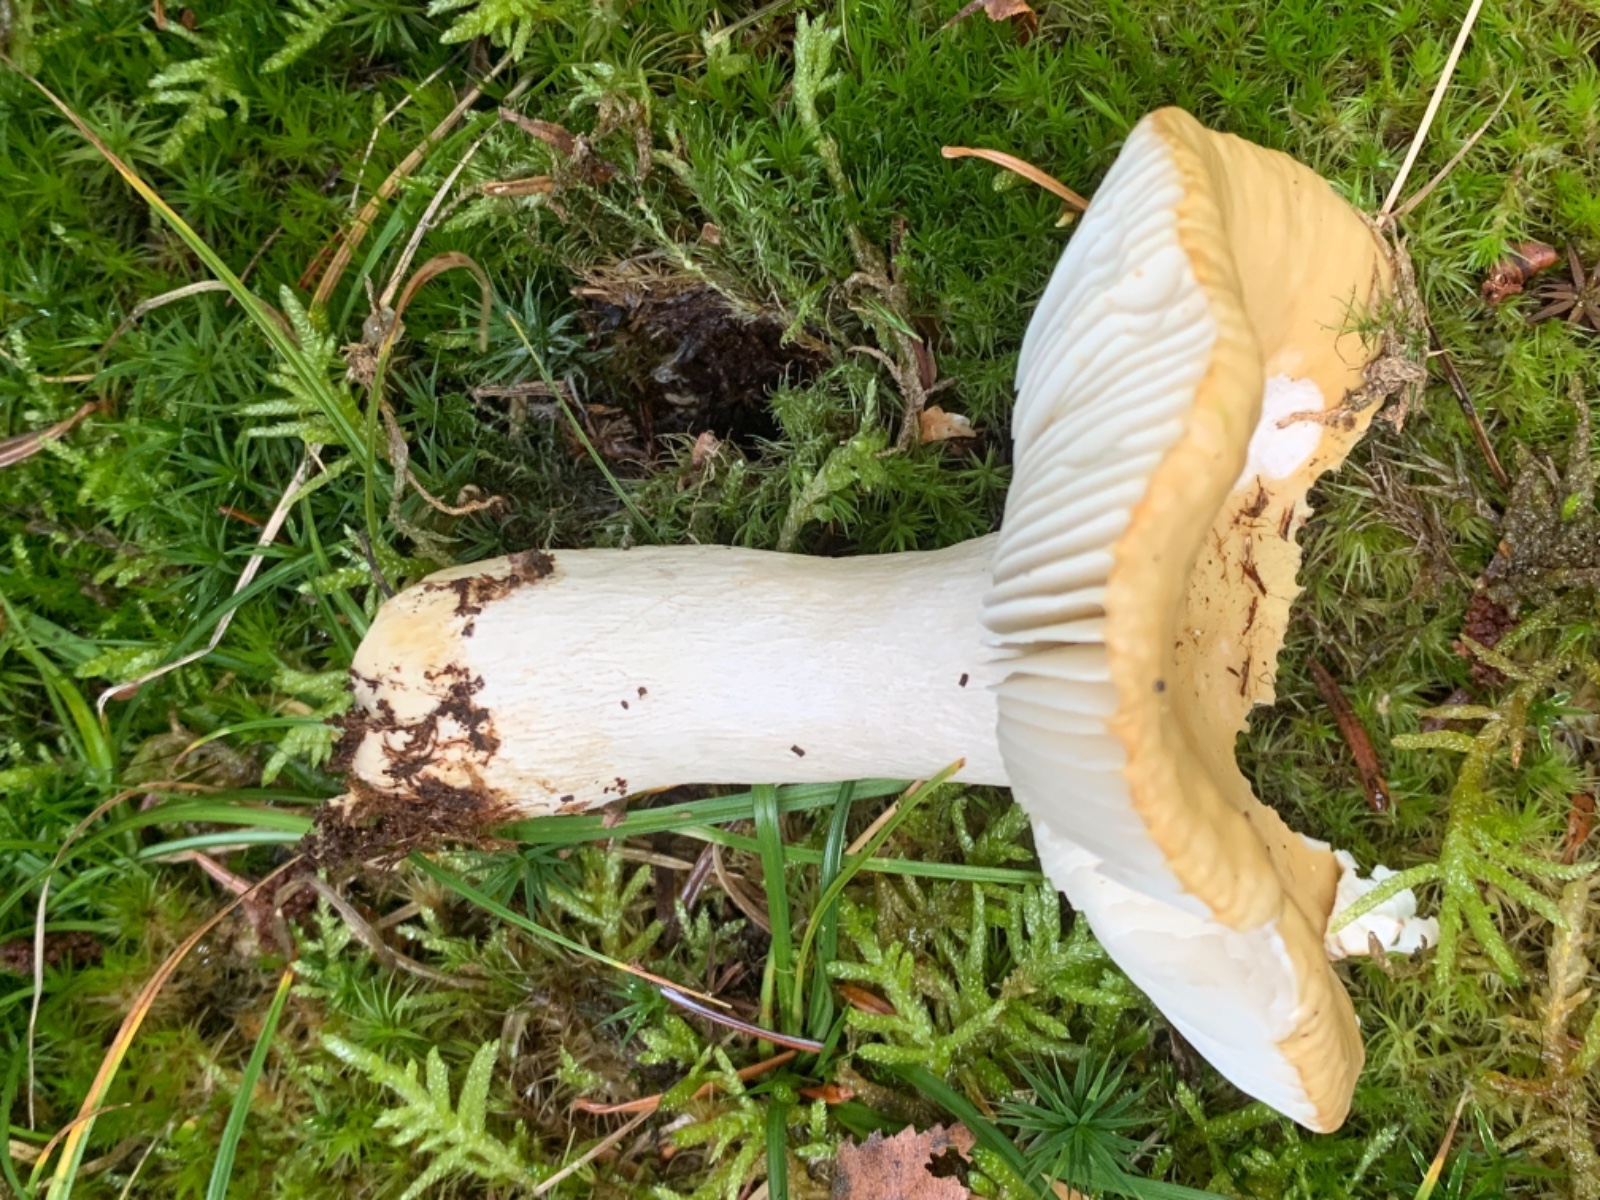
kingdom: Fungi
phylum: Basidiomycota
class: Agaricomycetes
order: Russulales
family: Russulaceae
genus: Russula
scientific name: Russula ochroleuca
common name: okkergul skørhat
